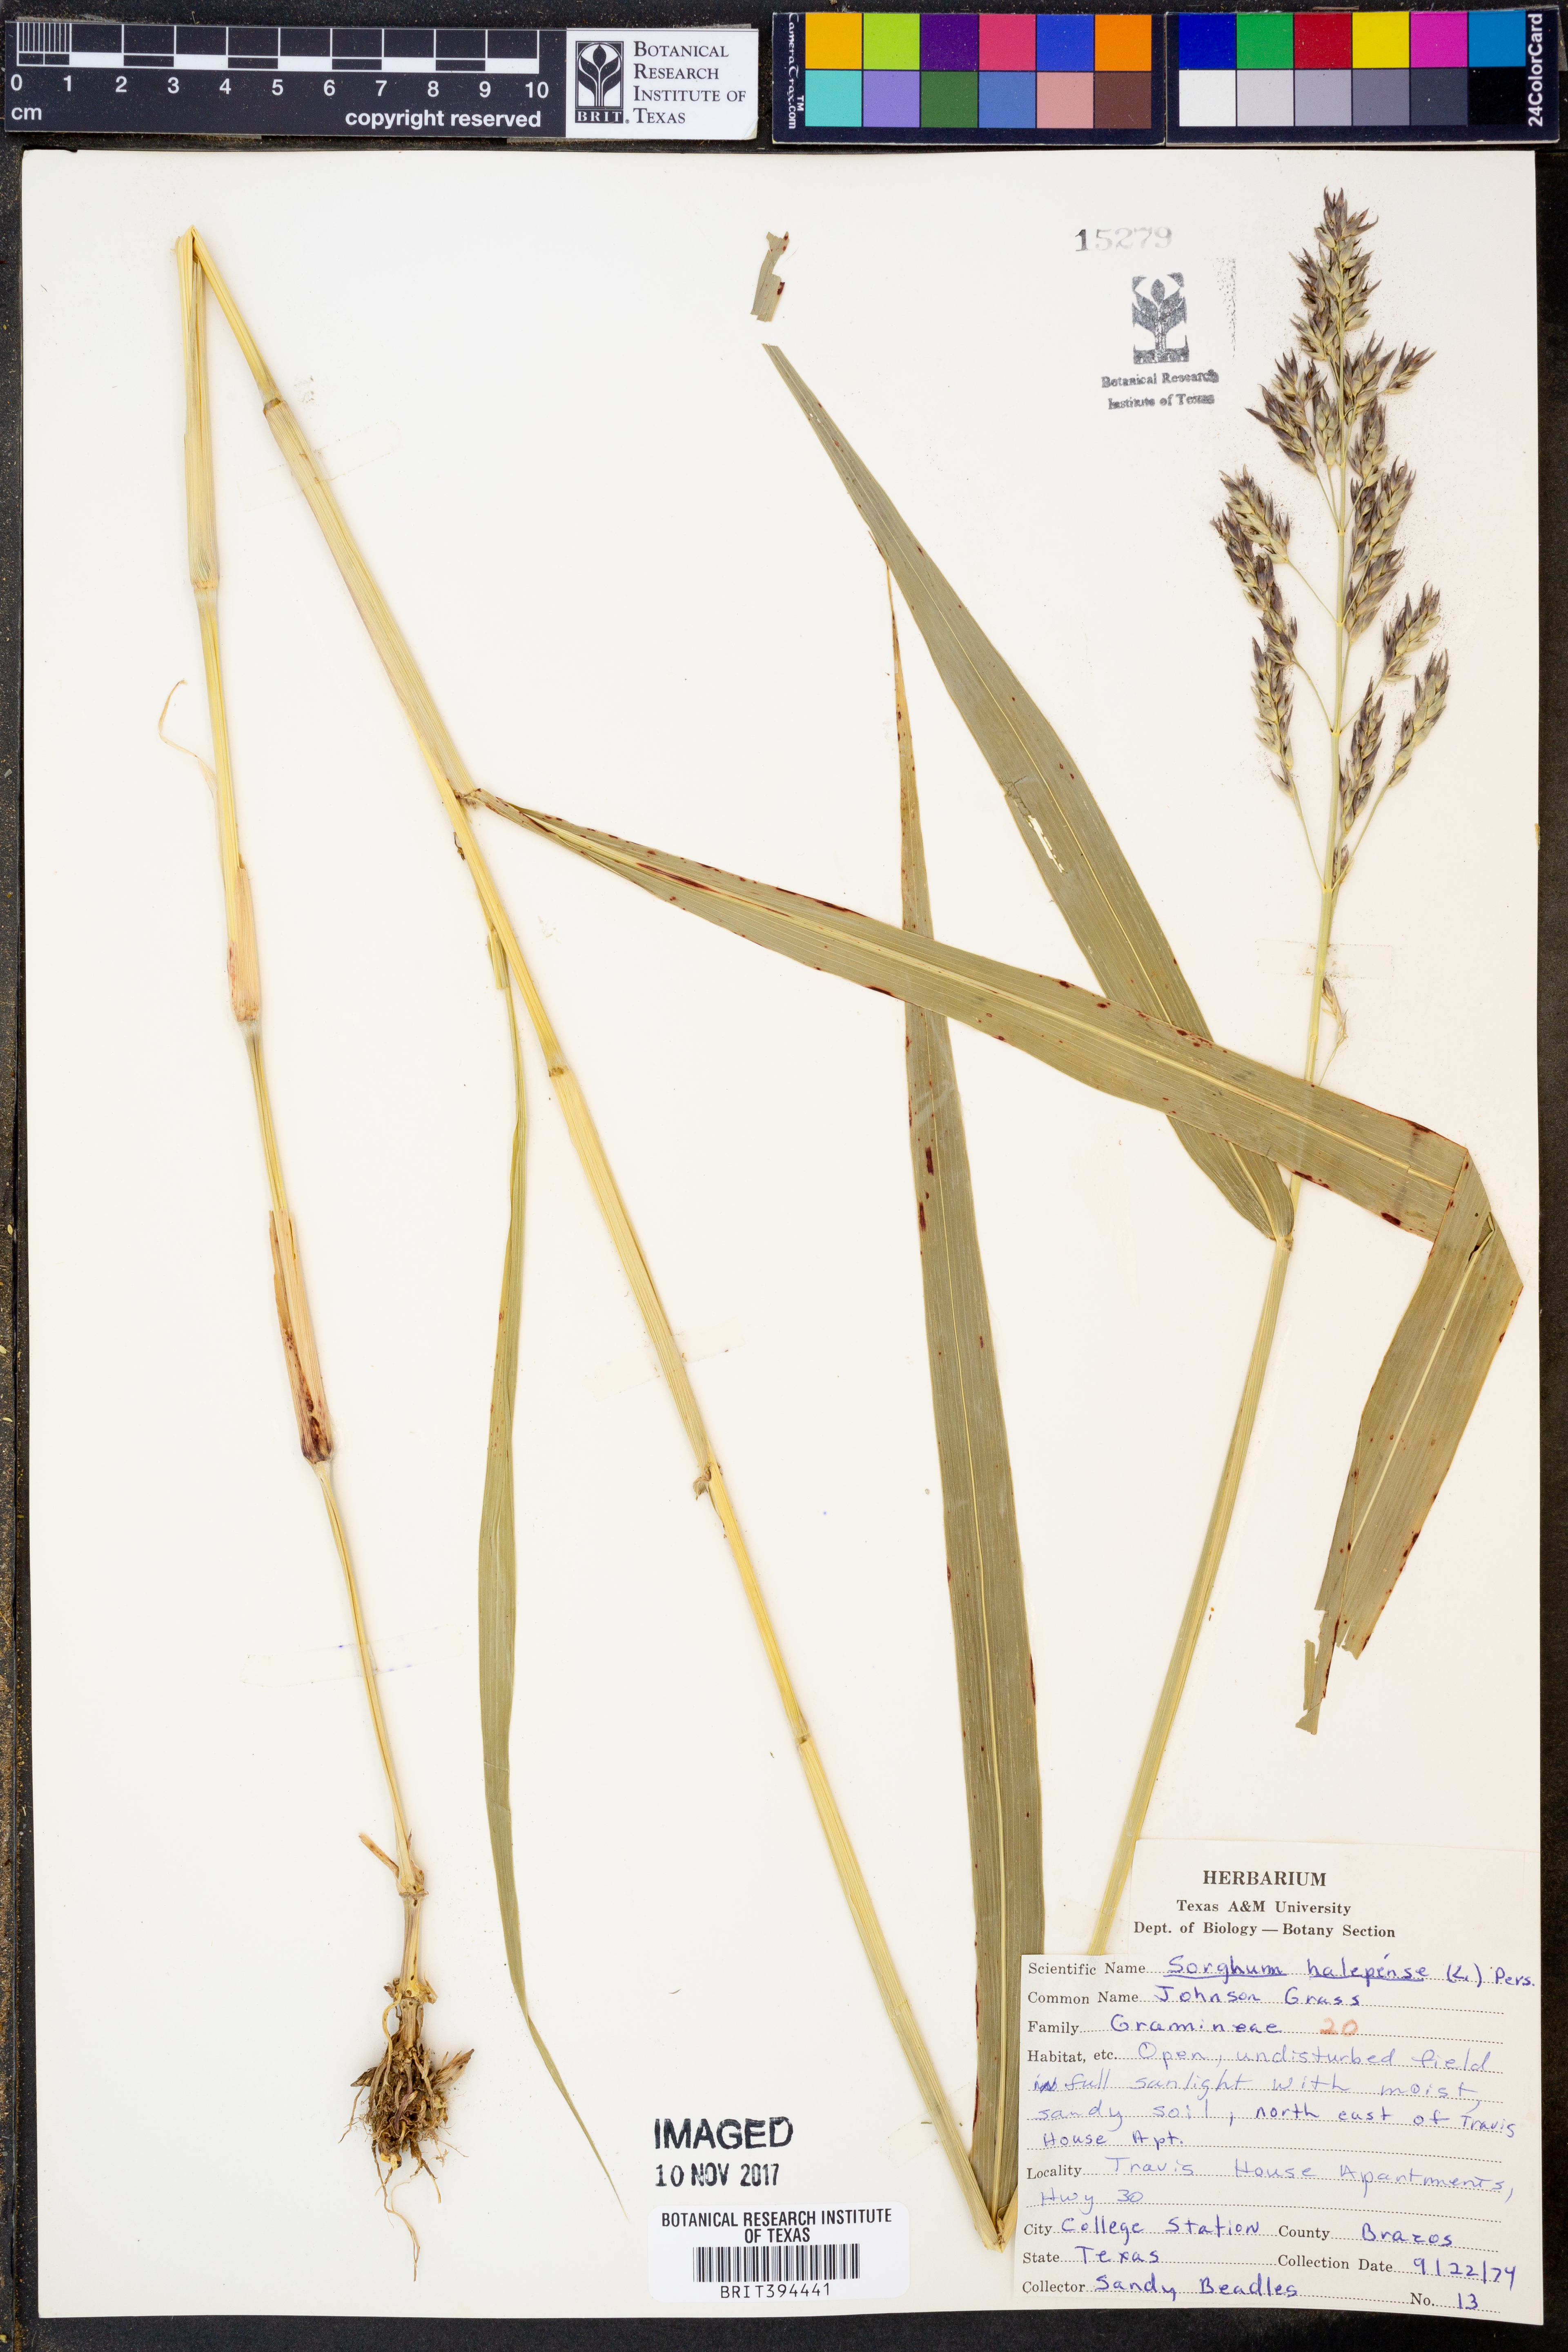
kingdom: Plantae
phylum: Tracheophyta
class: Liliopsida
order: Poales
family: Poaceae
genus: Sorghum
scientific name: Sorghum halepense
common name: Johnson-grass
